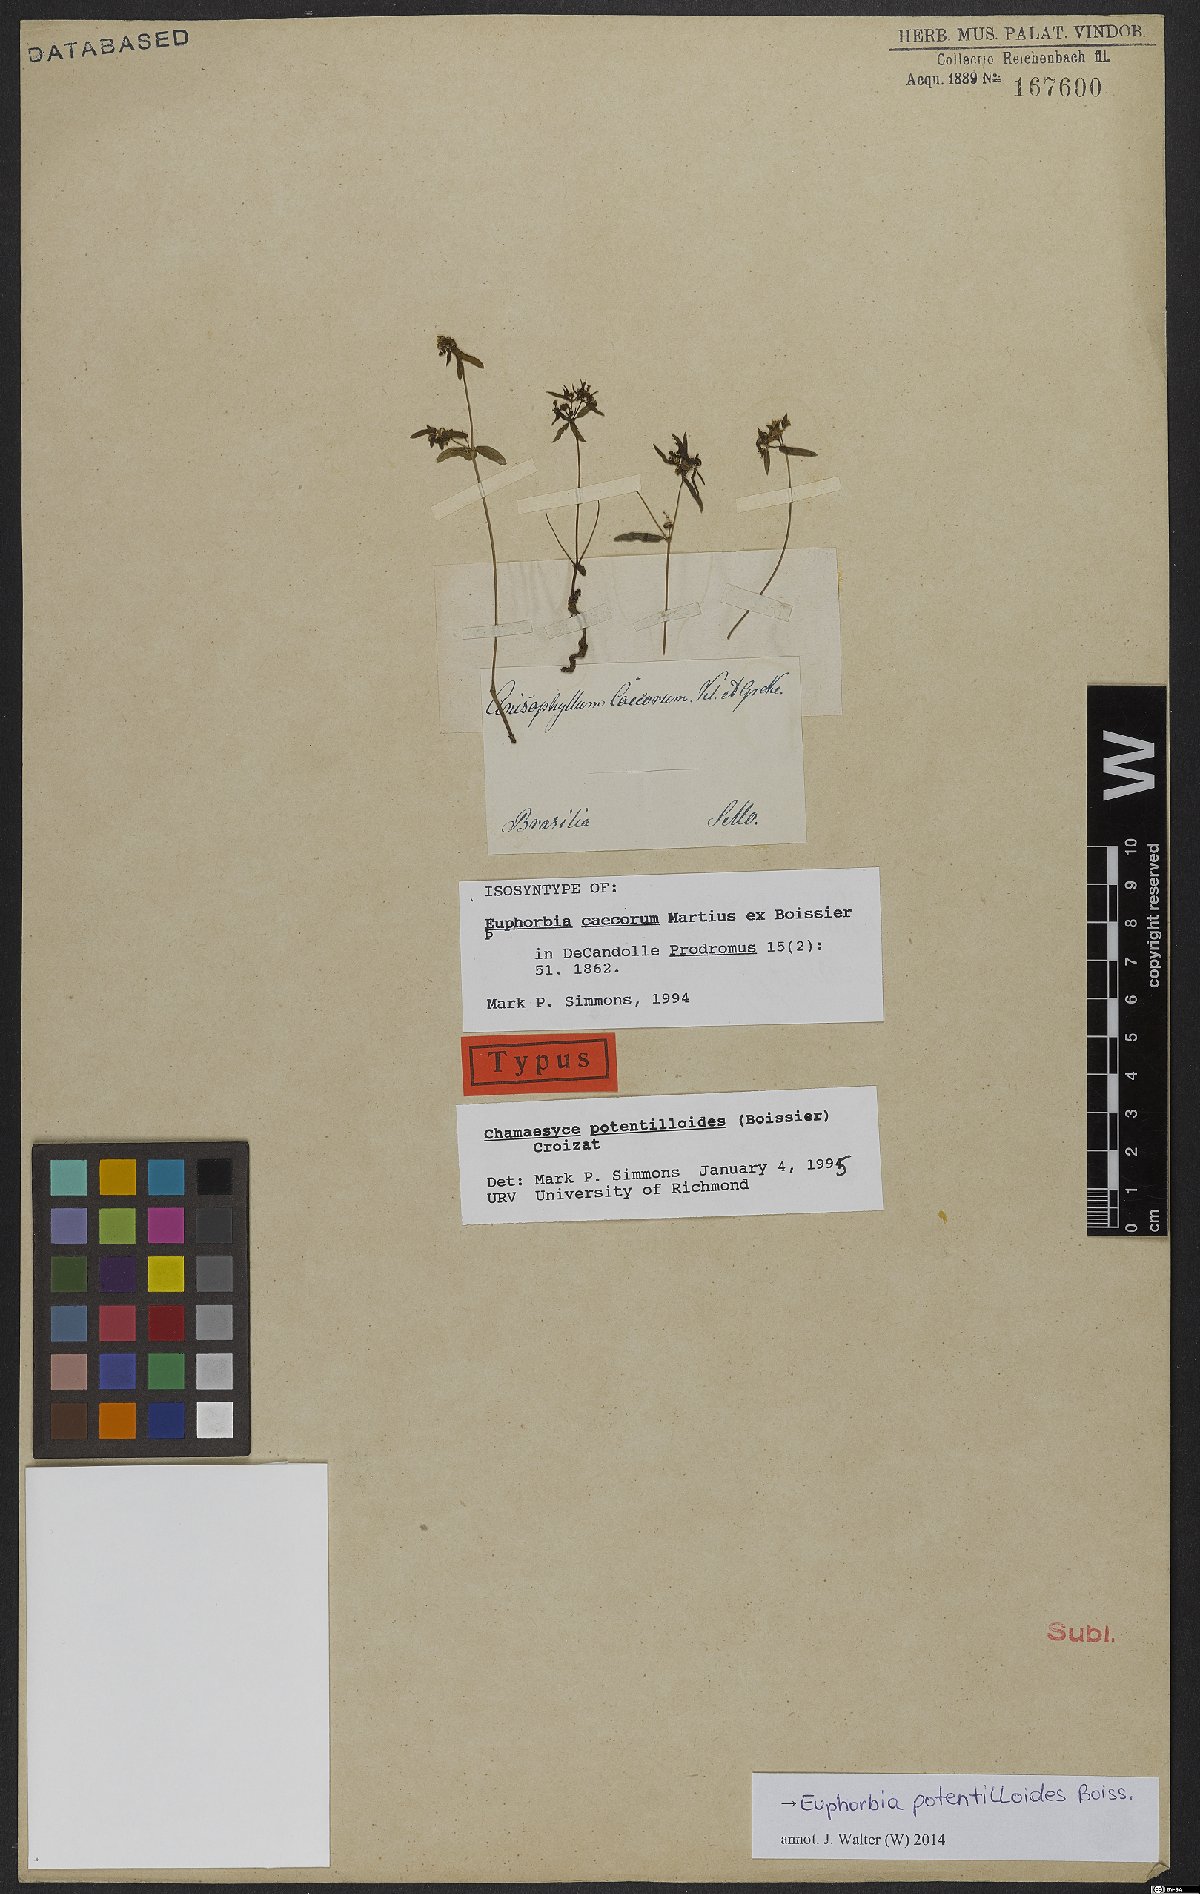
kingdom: Plantae
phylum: Tracheophyta
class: Magnoliopsida
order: Malpighiales
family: Euphorbiaceae
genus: Euphorbia
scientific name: Euphorbia potentilloides
